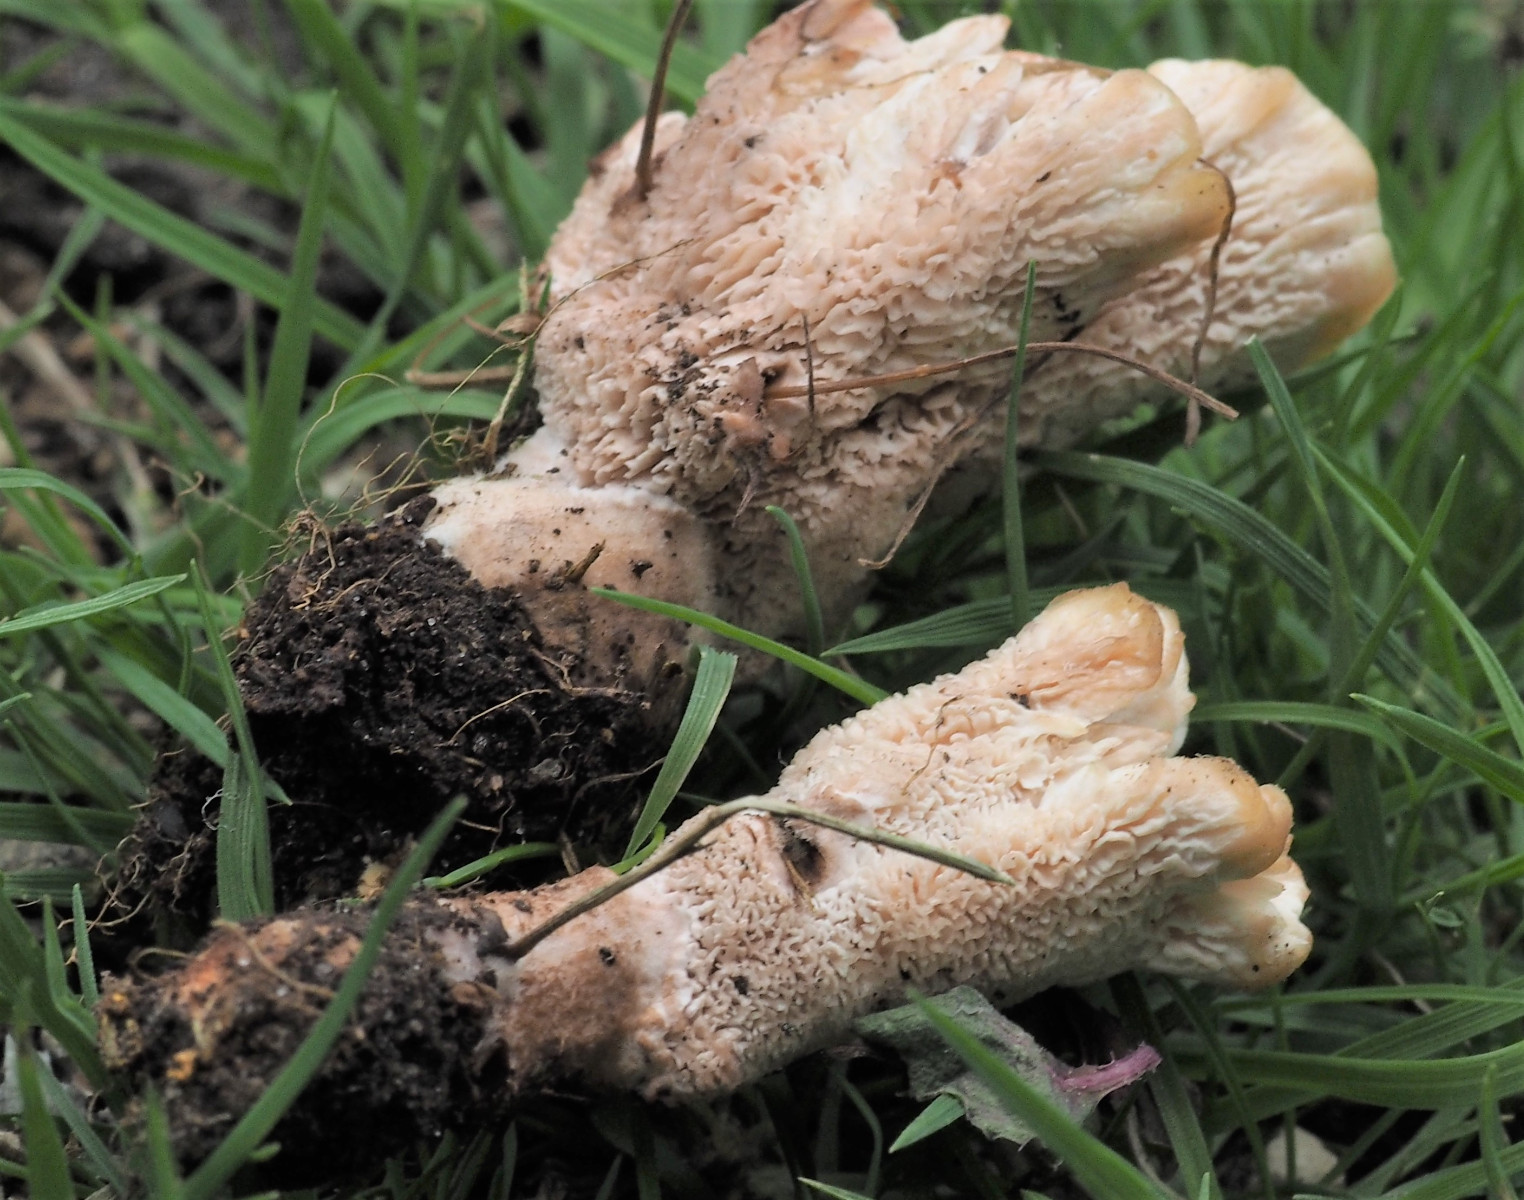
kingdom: Fungi
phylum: Basidiomycota
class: Agaricomycetes
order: Polyporales
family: Podoscyphaceae
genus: Abortiporus
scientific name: Abortiporus biennis
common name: rødmende pjalteporesvamp
